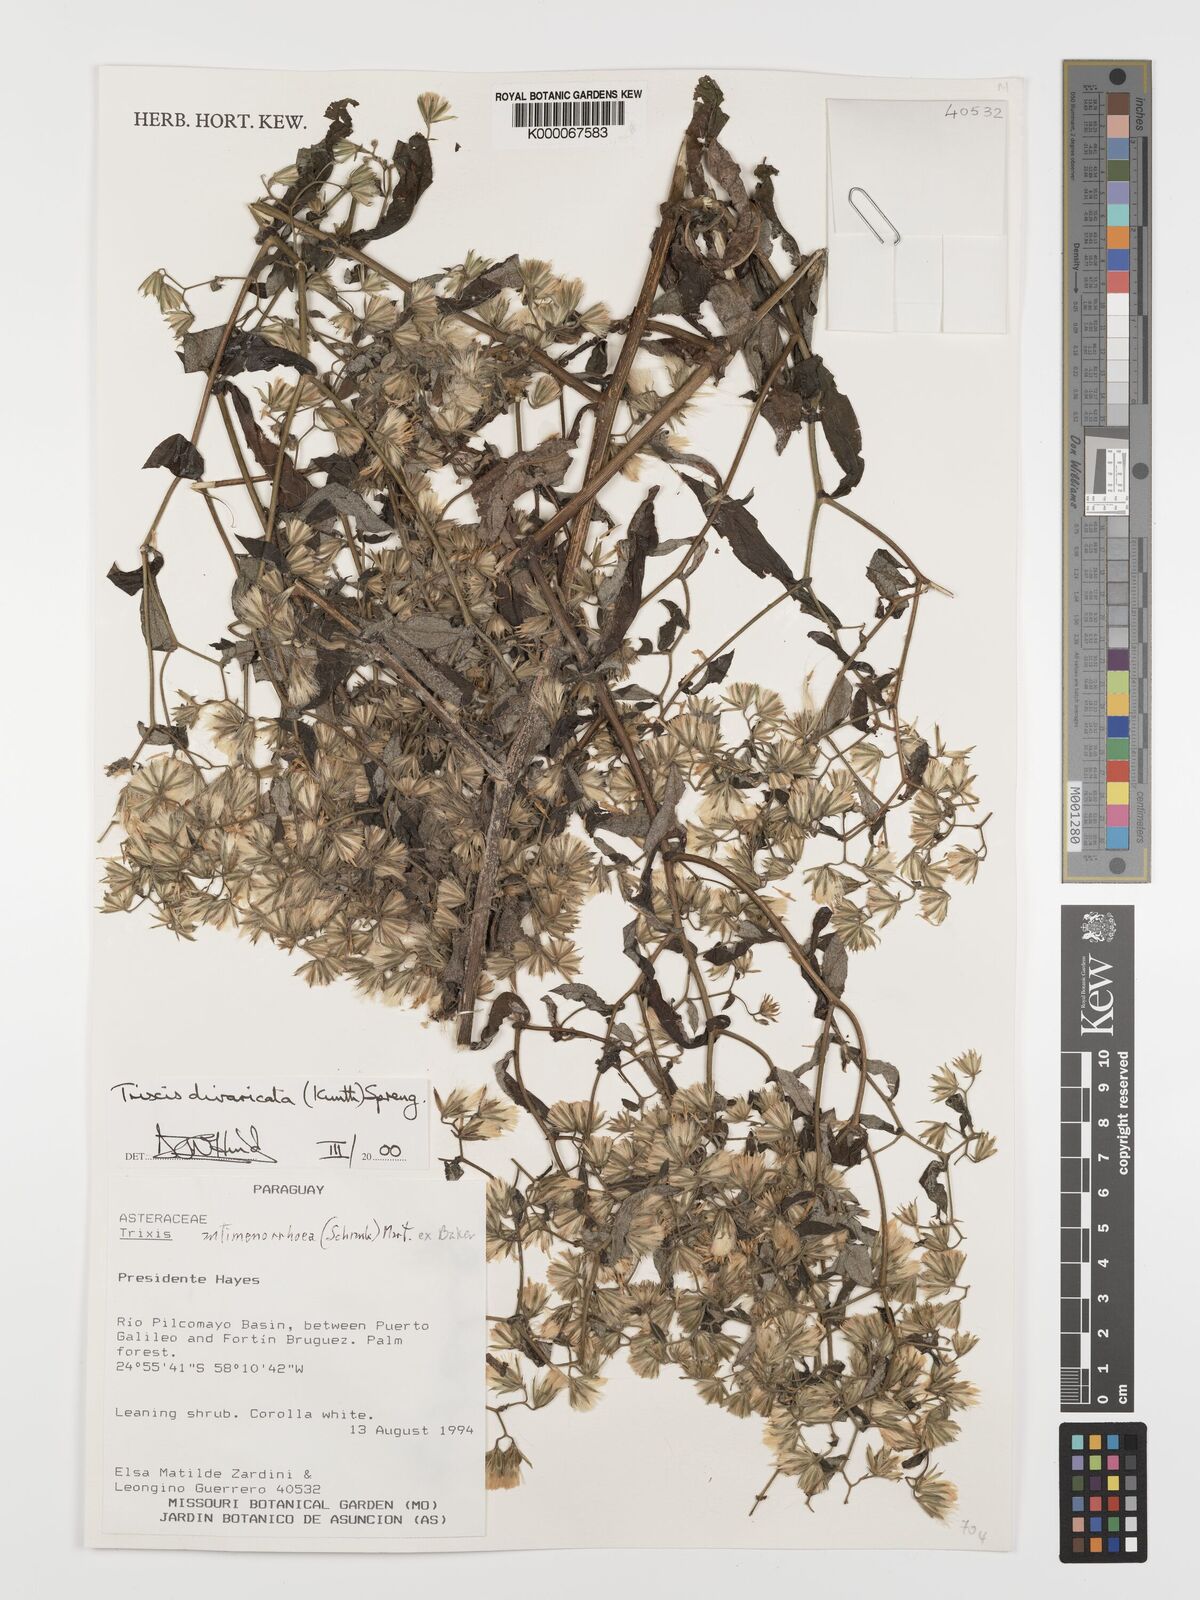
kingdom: Plantae
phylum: Tracheophyta
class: Magnoliopsida
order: Asterales
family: Asteraceae
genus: Trixis
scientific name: Trixis divaricata
